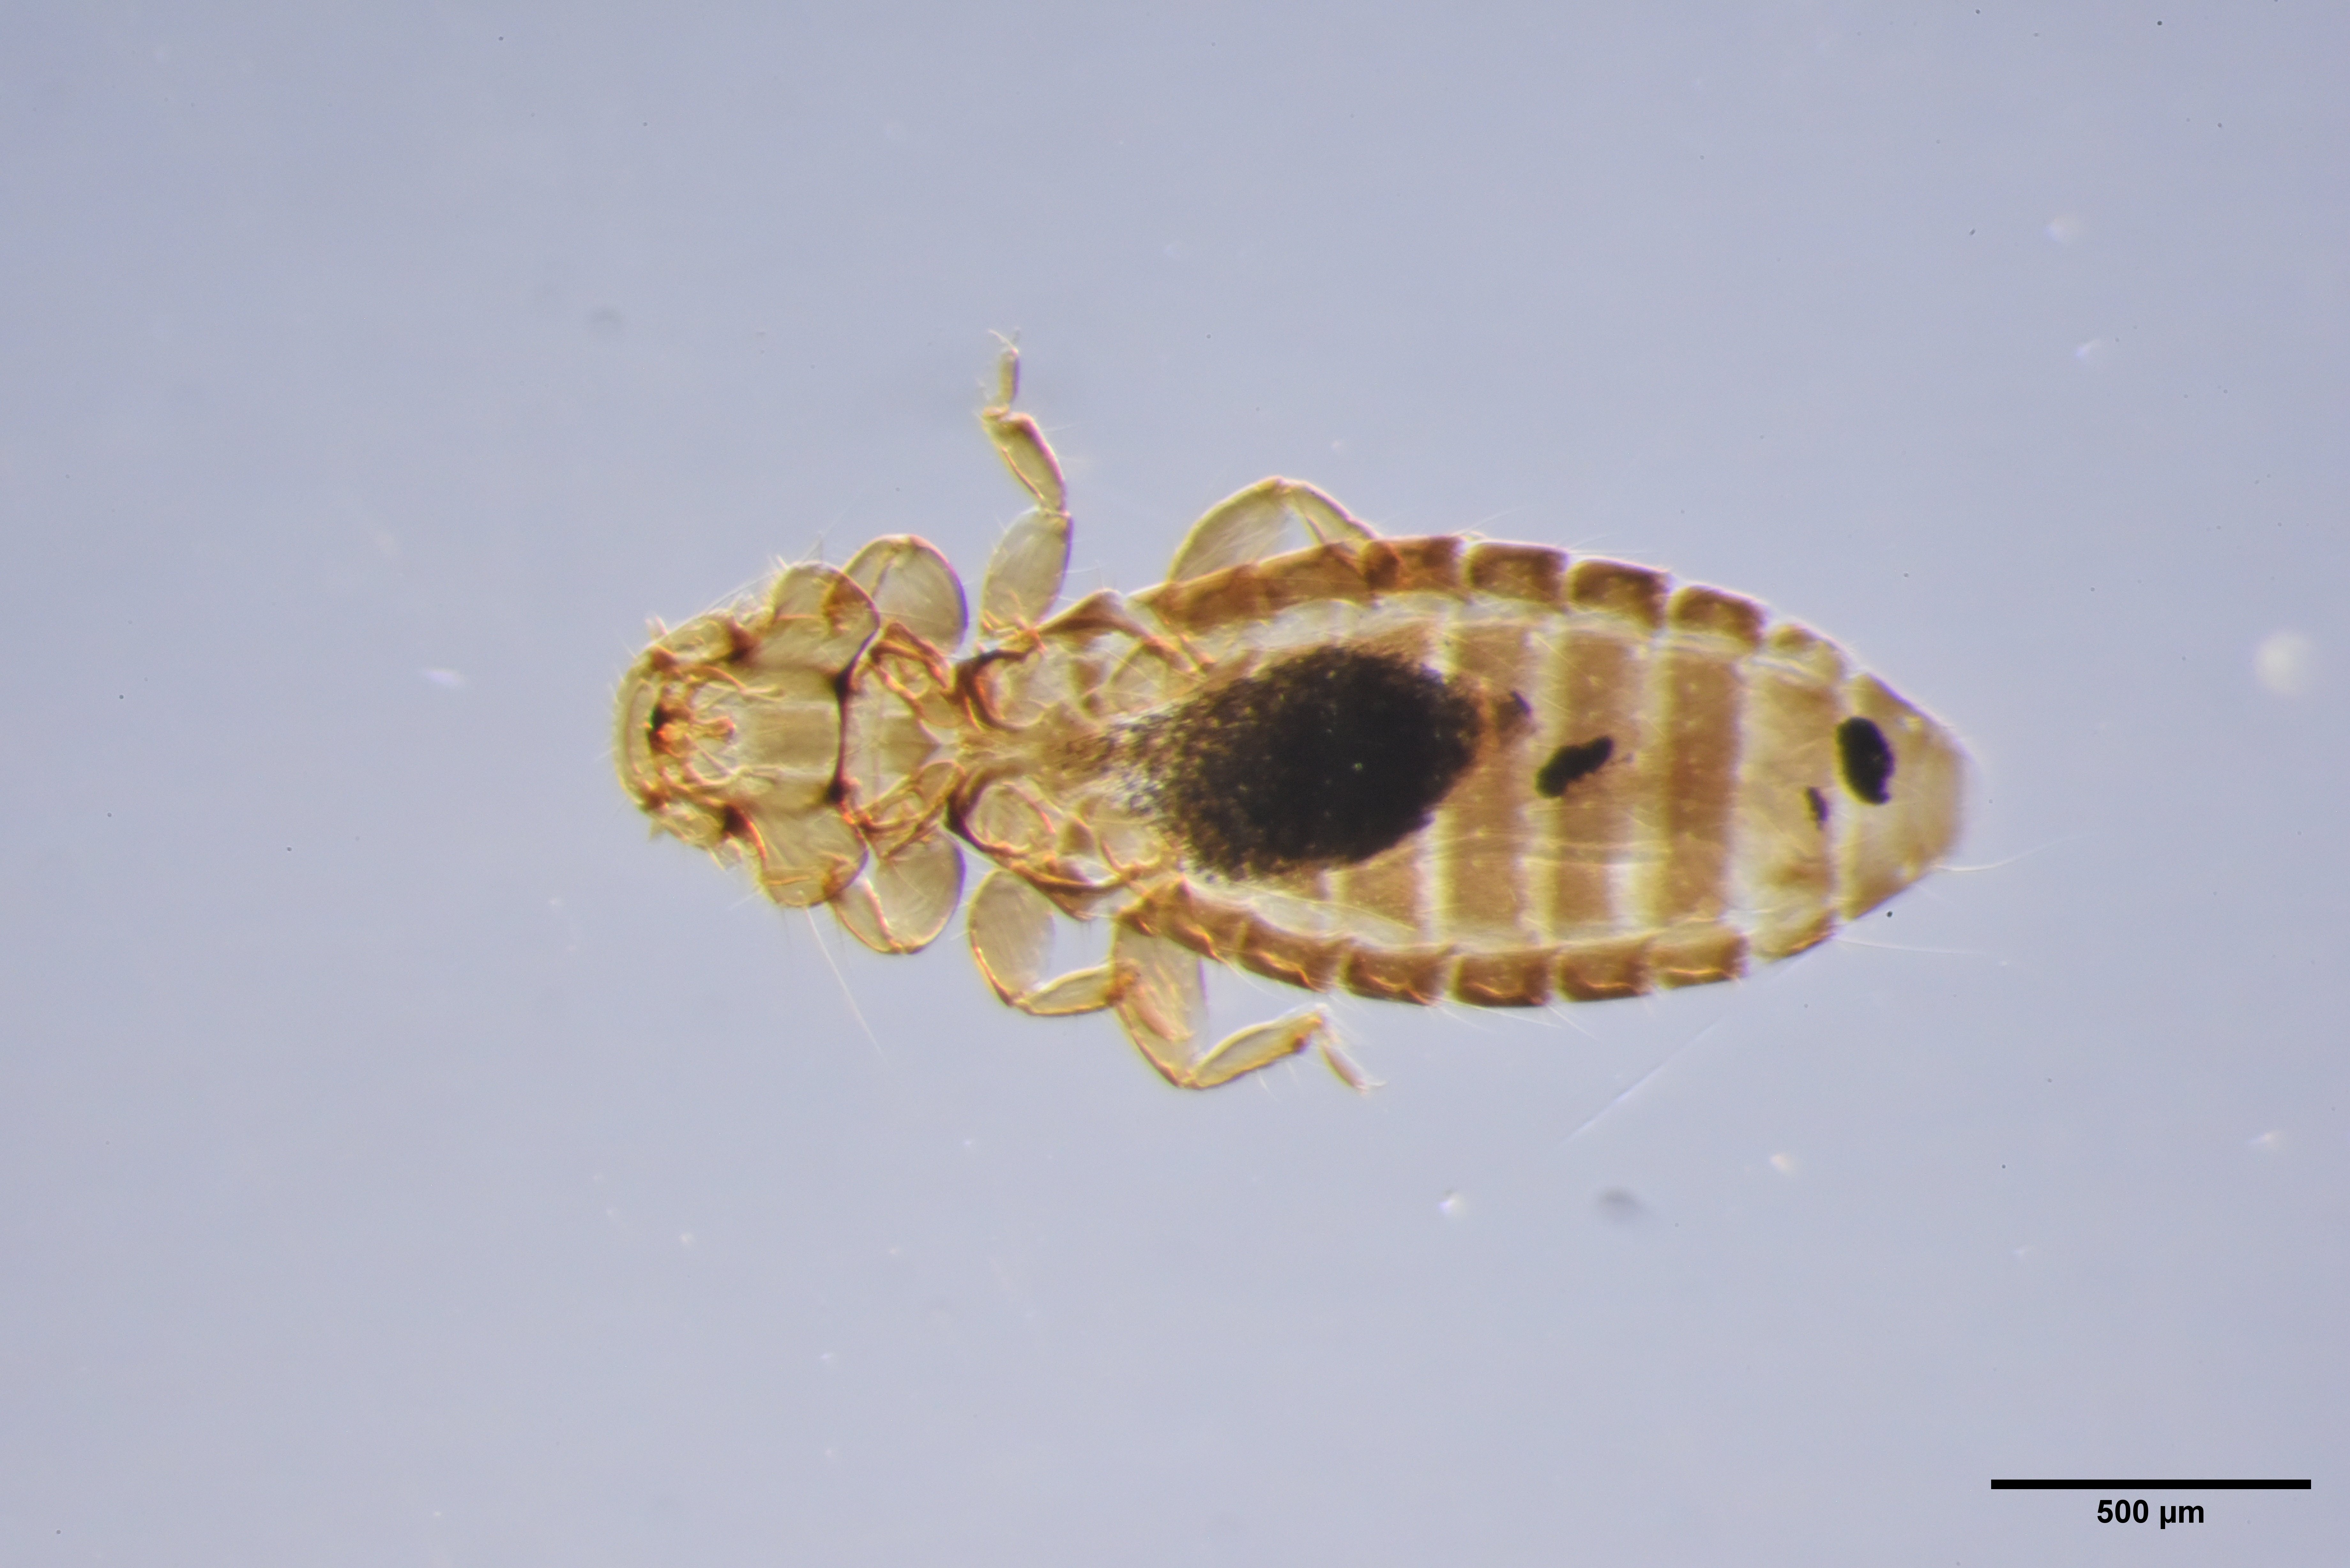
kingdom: Animalia
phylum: Arthropoda
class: Insecta
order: Psocodea
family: Ancistronidae
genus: Actornithophilus
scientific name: Actornithophilus paludosus
